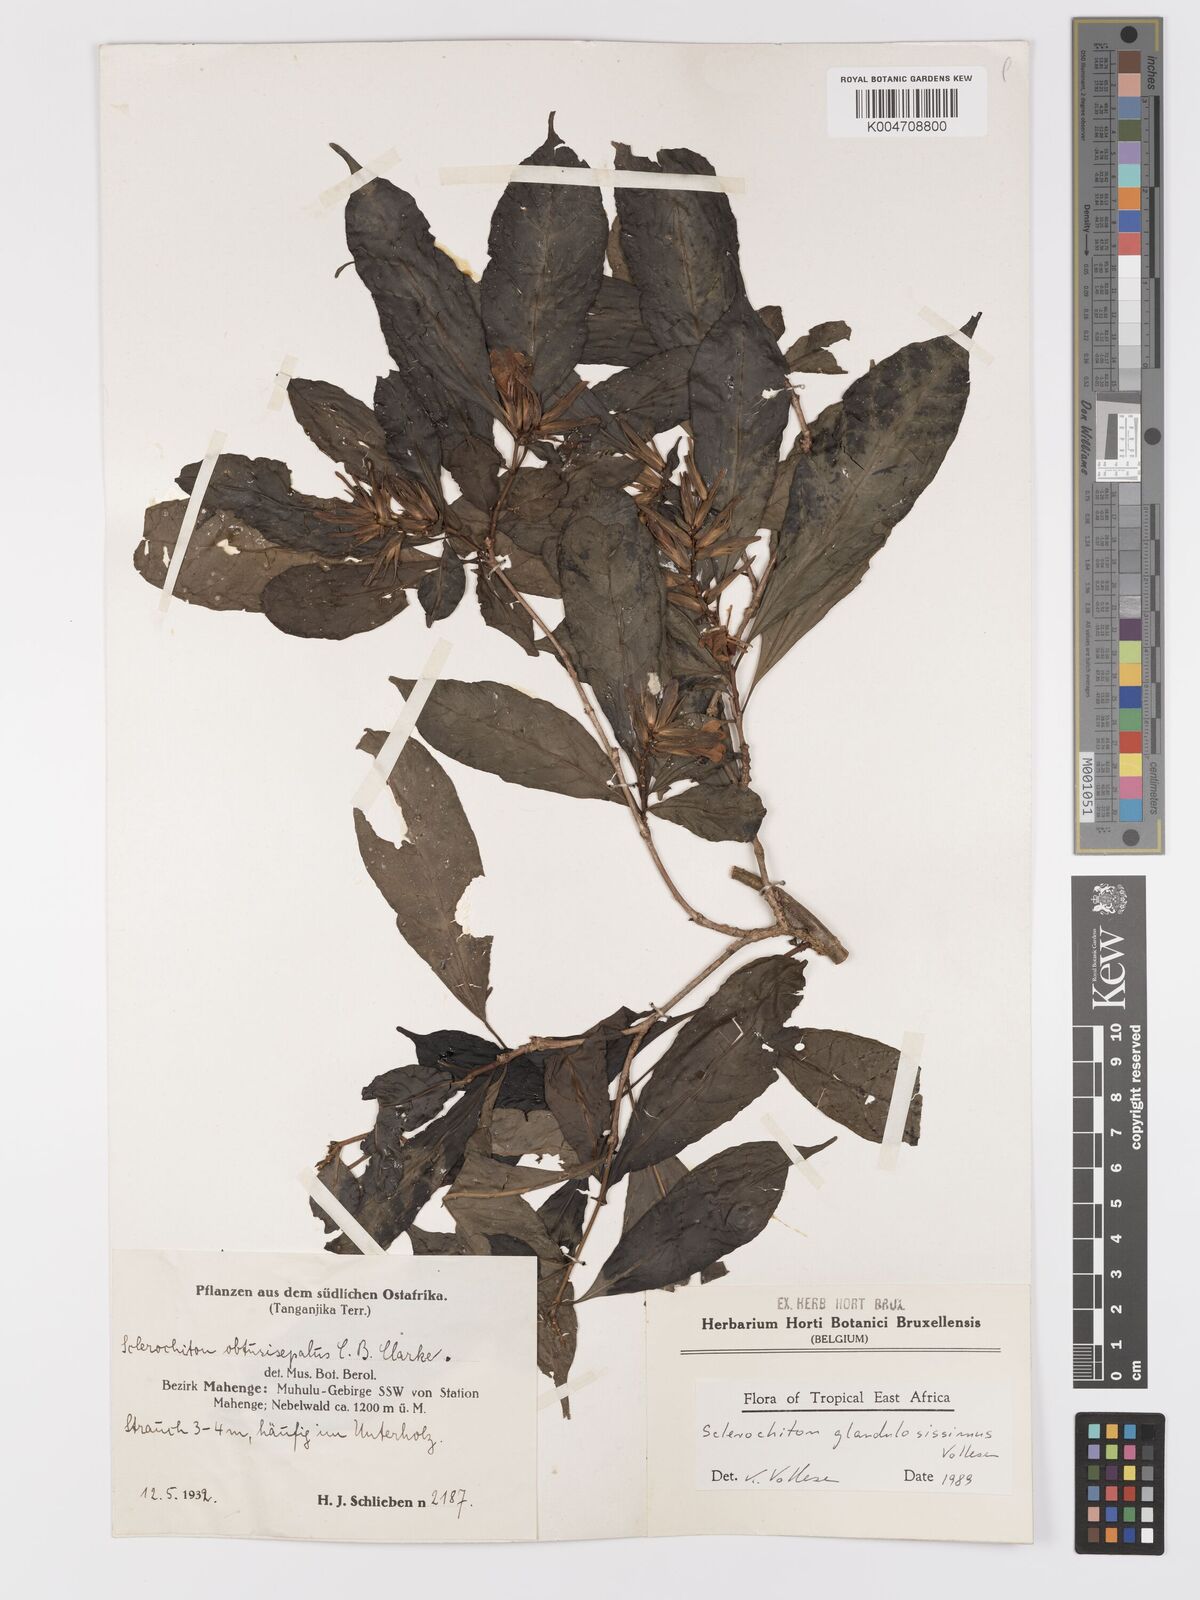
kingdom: Plantae
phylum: Tracheophyta
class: Magnoliopsida
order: Lamiales
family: Acanthaceae
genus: Sclerochiton
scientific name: Sclerochiton glandulosissimus
